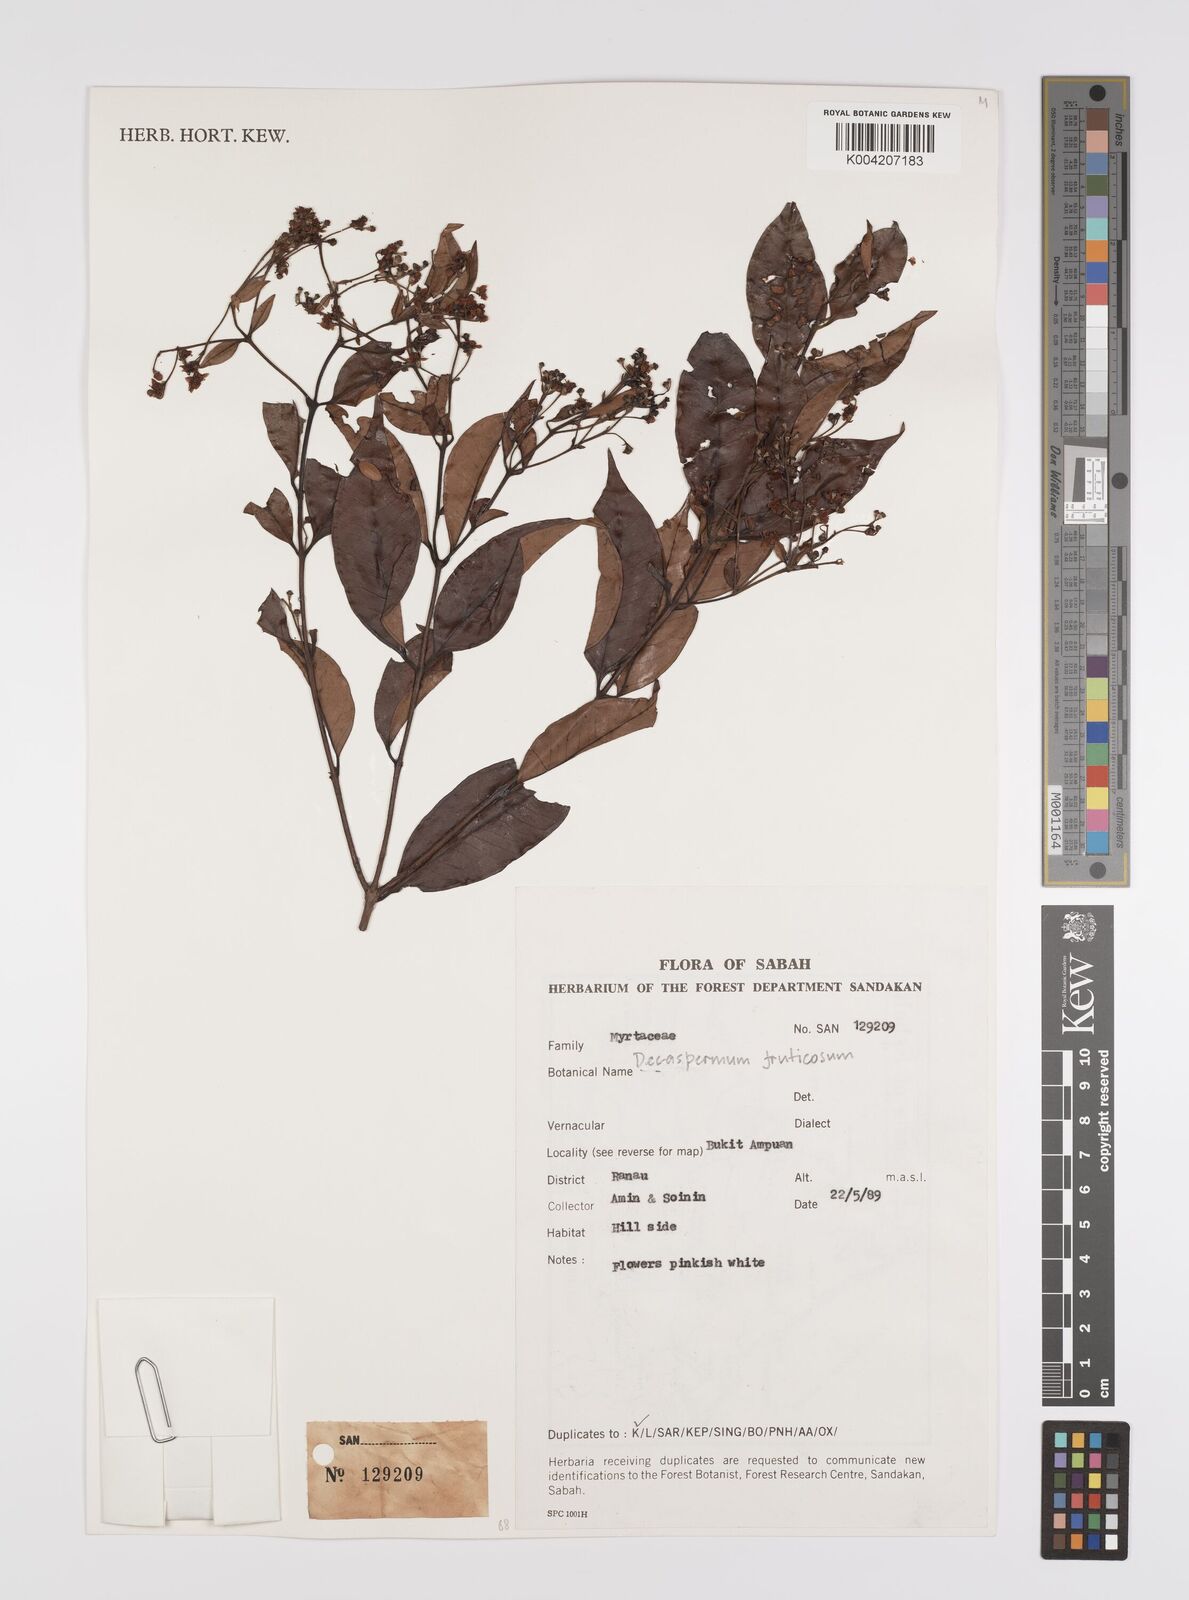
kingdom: Plantae
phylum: Tracheophyta
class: Magnoliopsida
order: Myrtales
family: Myrtaceae
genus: Decaspermum
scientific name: Decaspermum parviflorum
